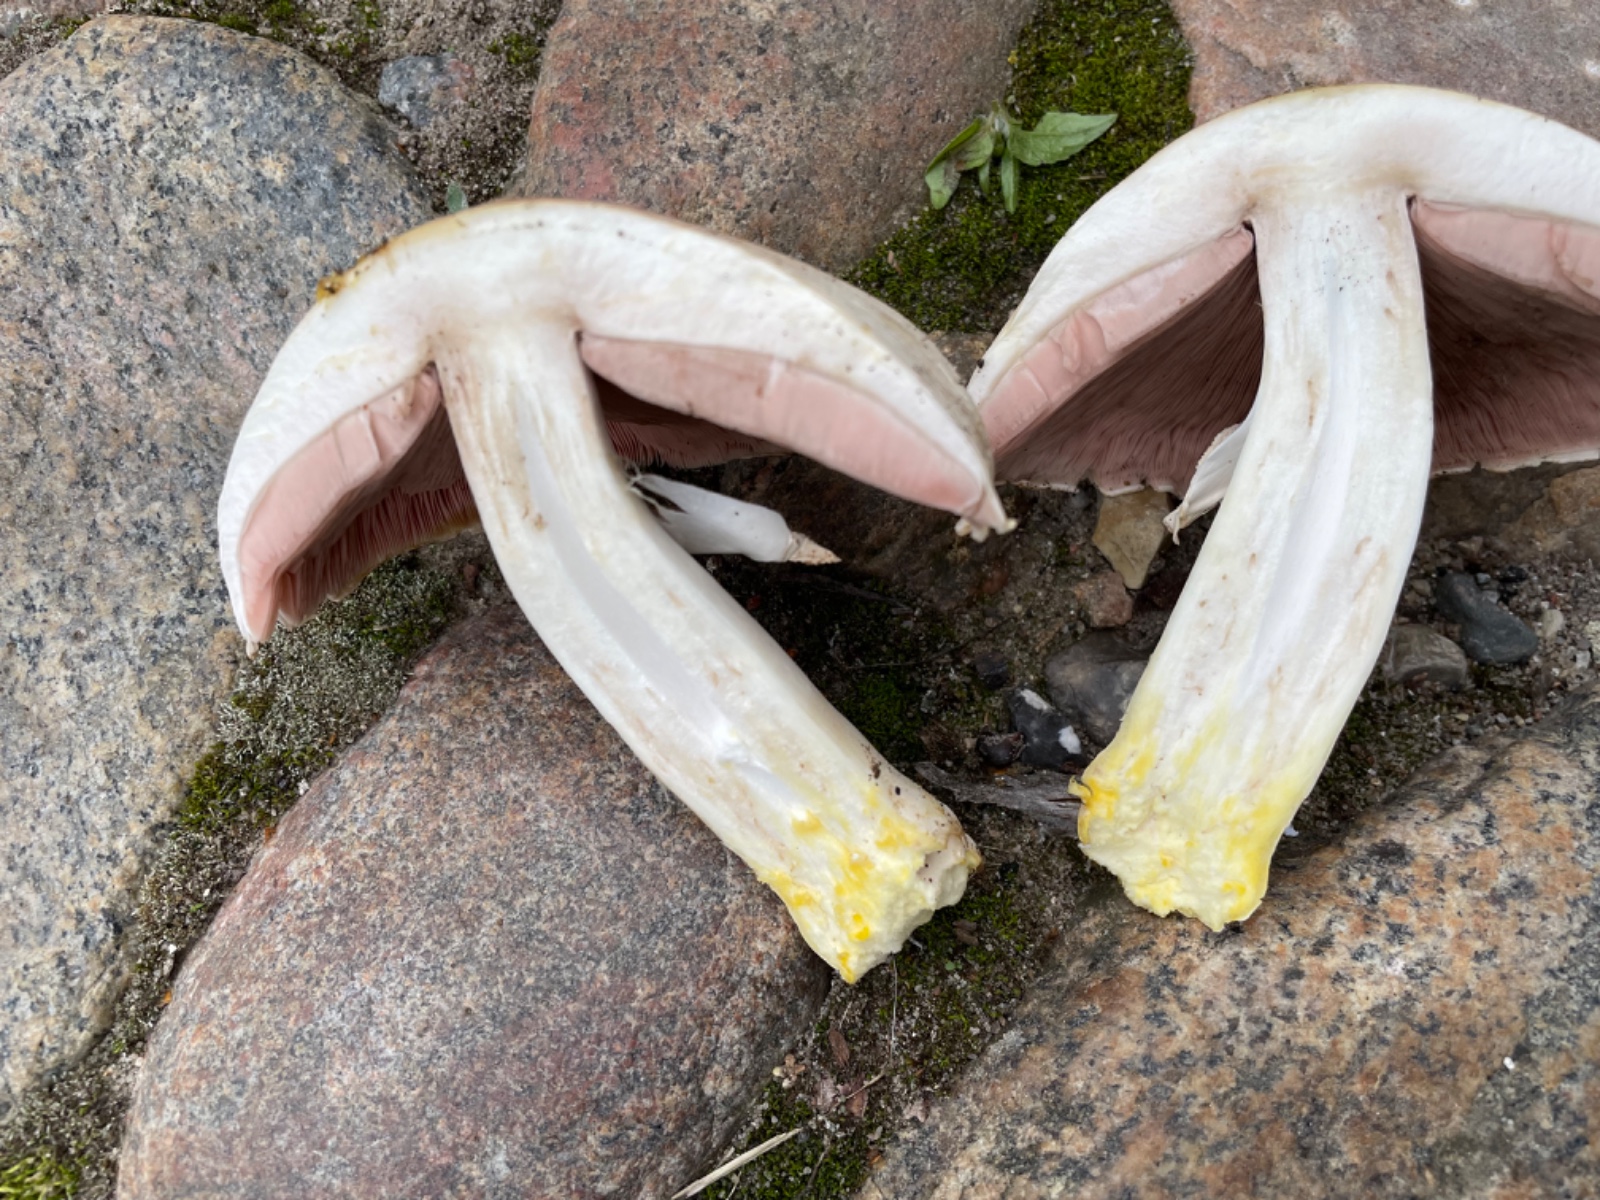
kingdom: Fungi
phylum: Basidiomycota
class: Agaricomycetes
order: Agaricales
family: Agaricaceae
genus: Agaricus
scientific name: Agaricus xanthodermus
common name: karbol-champignon
